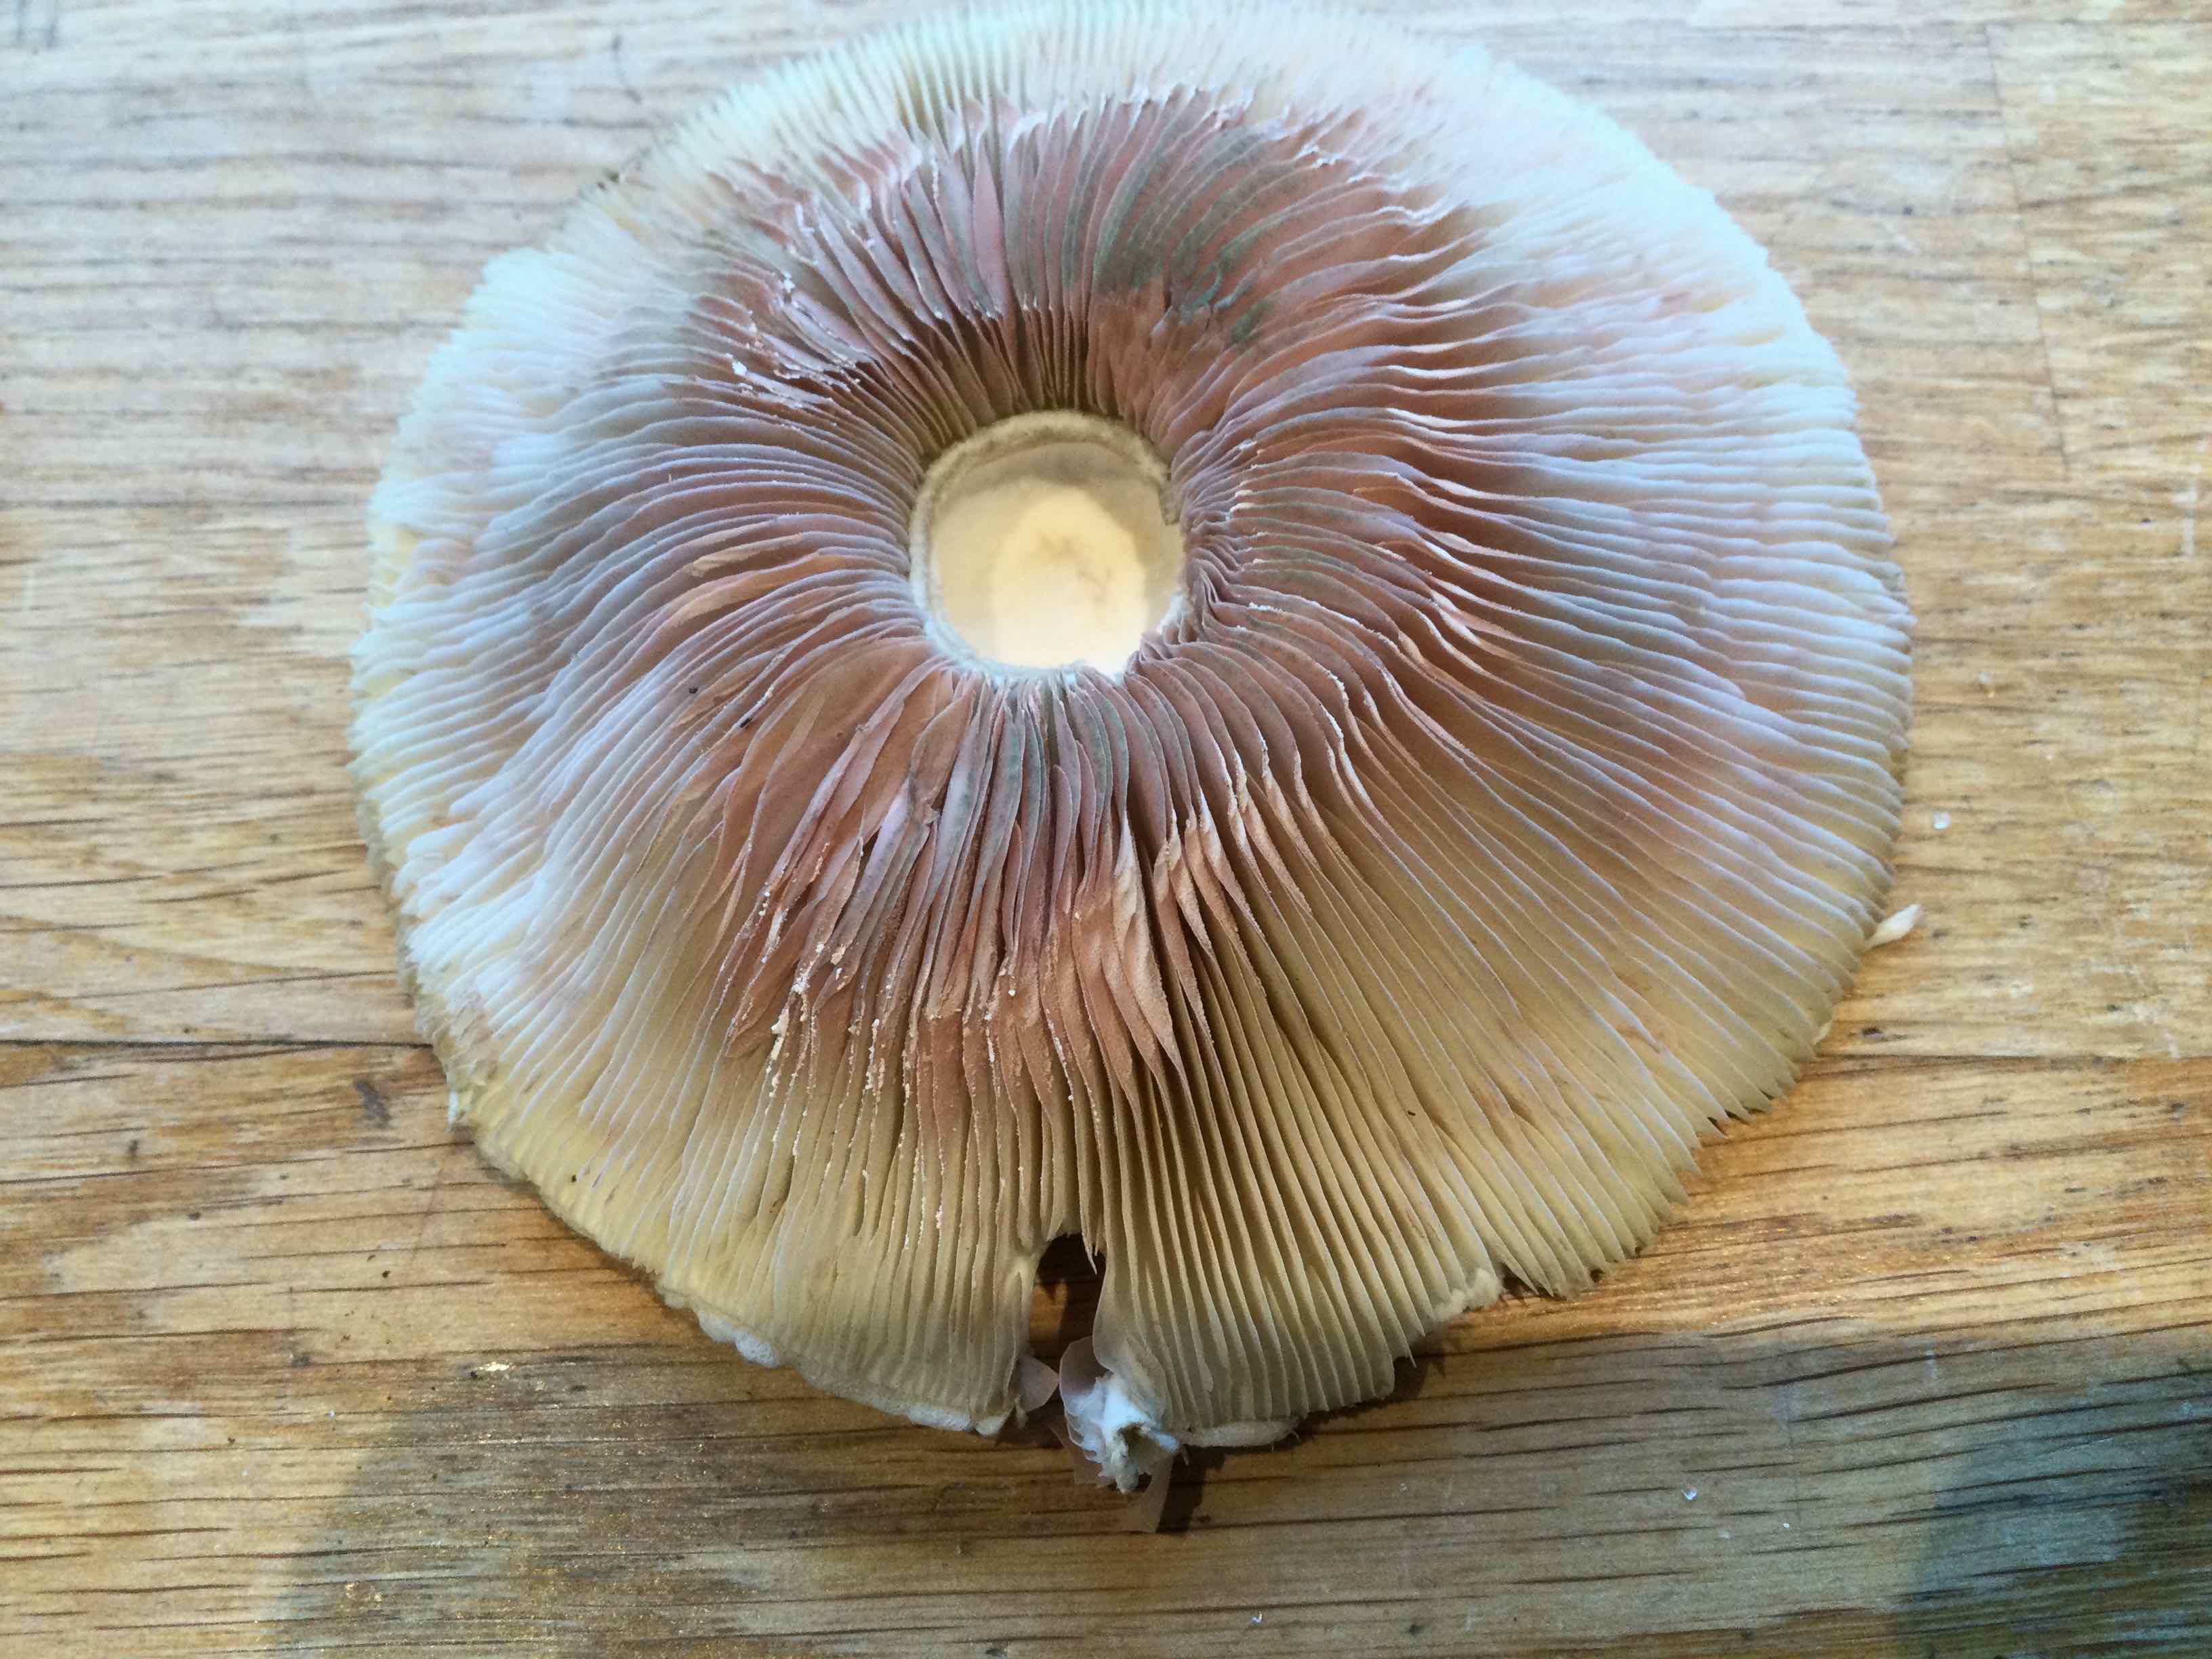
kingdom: Fungi
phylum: Basidiomycota
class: Agaricomycetes
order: Agaricales
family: Agaricaceae
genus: Leucoagaricus
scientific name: Leucoagaricus leucothites
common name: rosabladet silkehat
